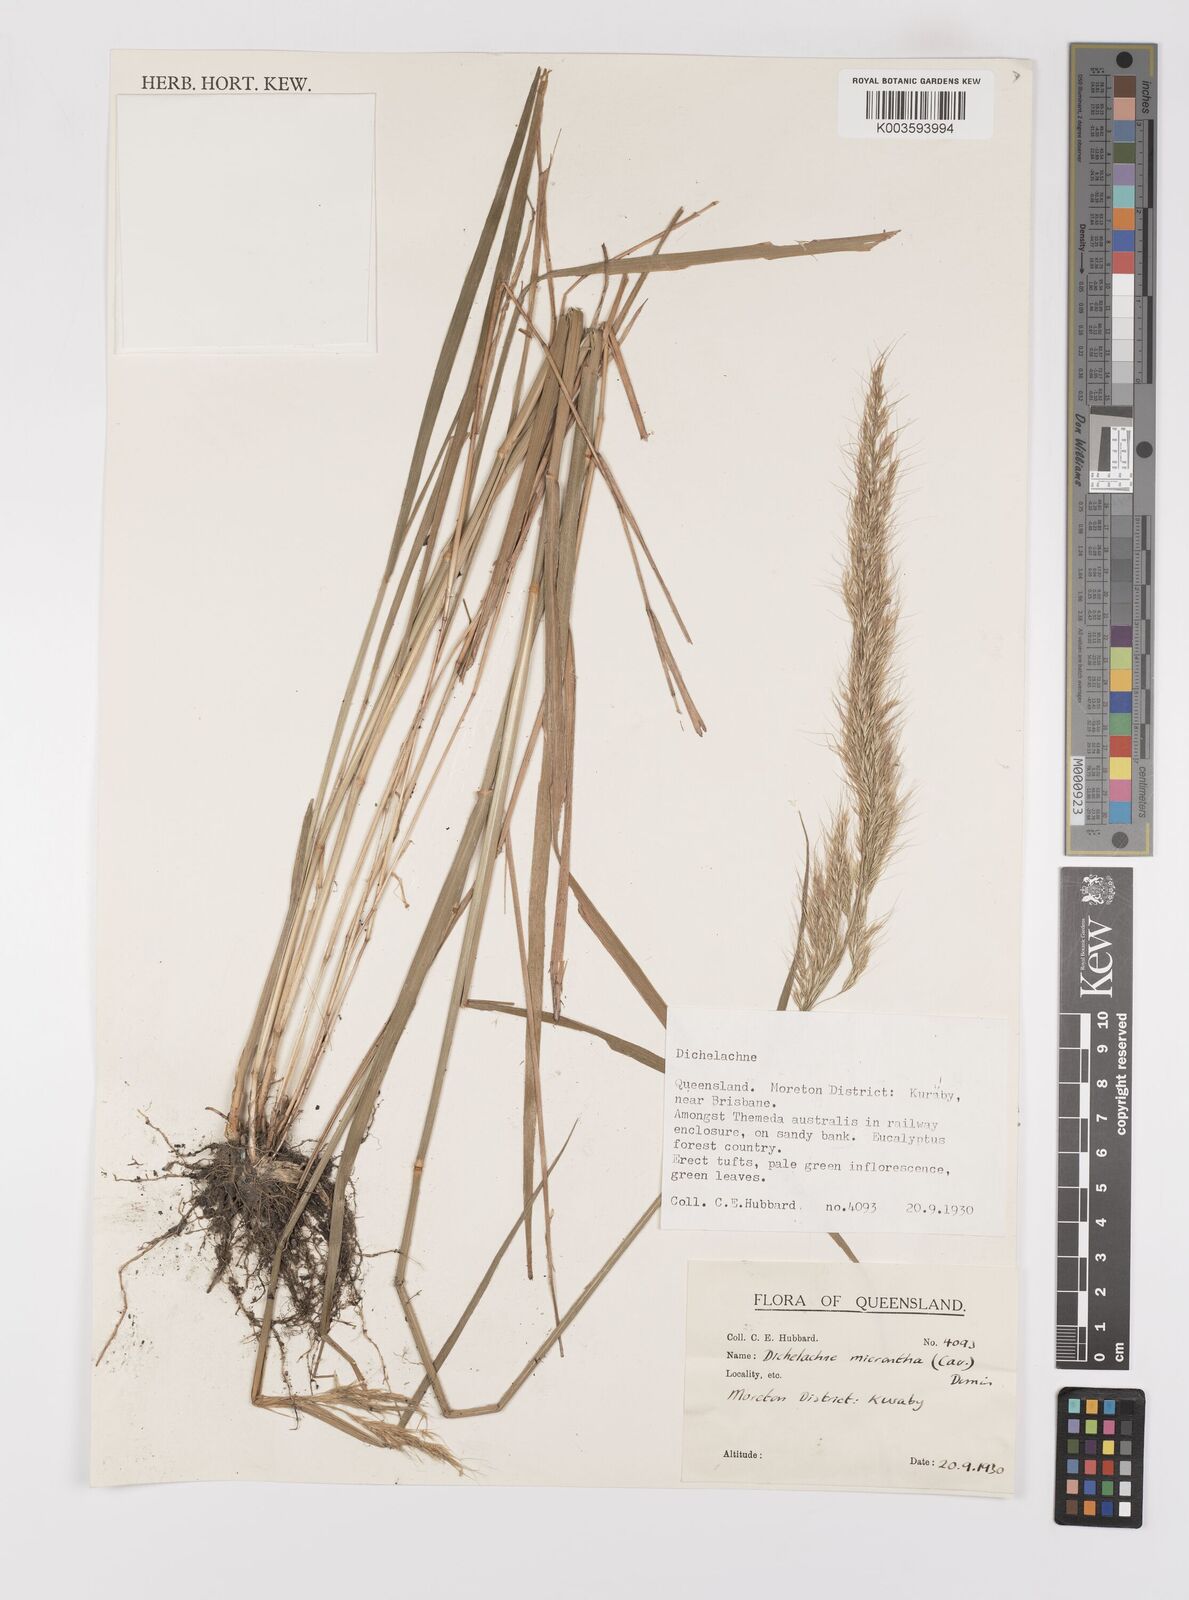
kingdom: Plantae
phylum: Tracheophyta
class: Liliopsida
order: Poales
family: Poaceae
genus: Dichelachne
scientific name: Dichelachne micrantha
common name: Plumegrass
